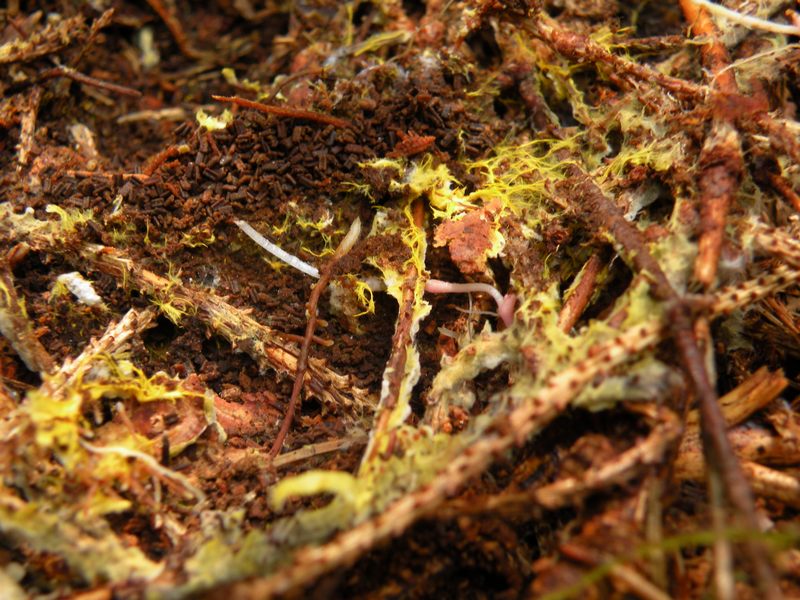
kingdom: Fungi
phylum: Basidiomycota
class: Agaricomycetes
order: Atheliales
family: Atheliaceae
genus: Piloderma
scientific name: Piloderma bicolor
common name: gul førnehinde
